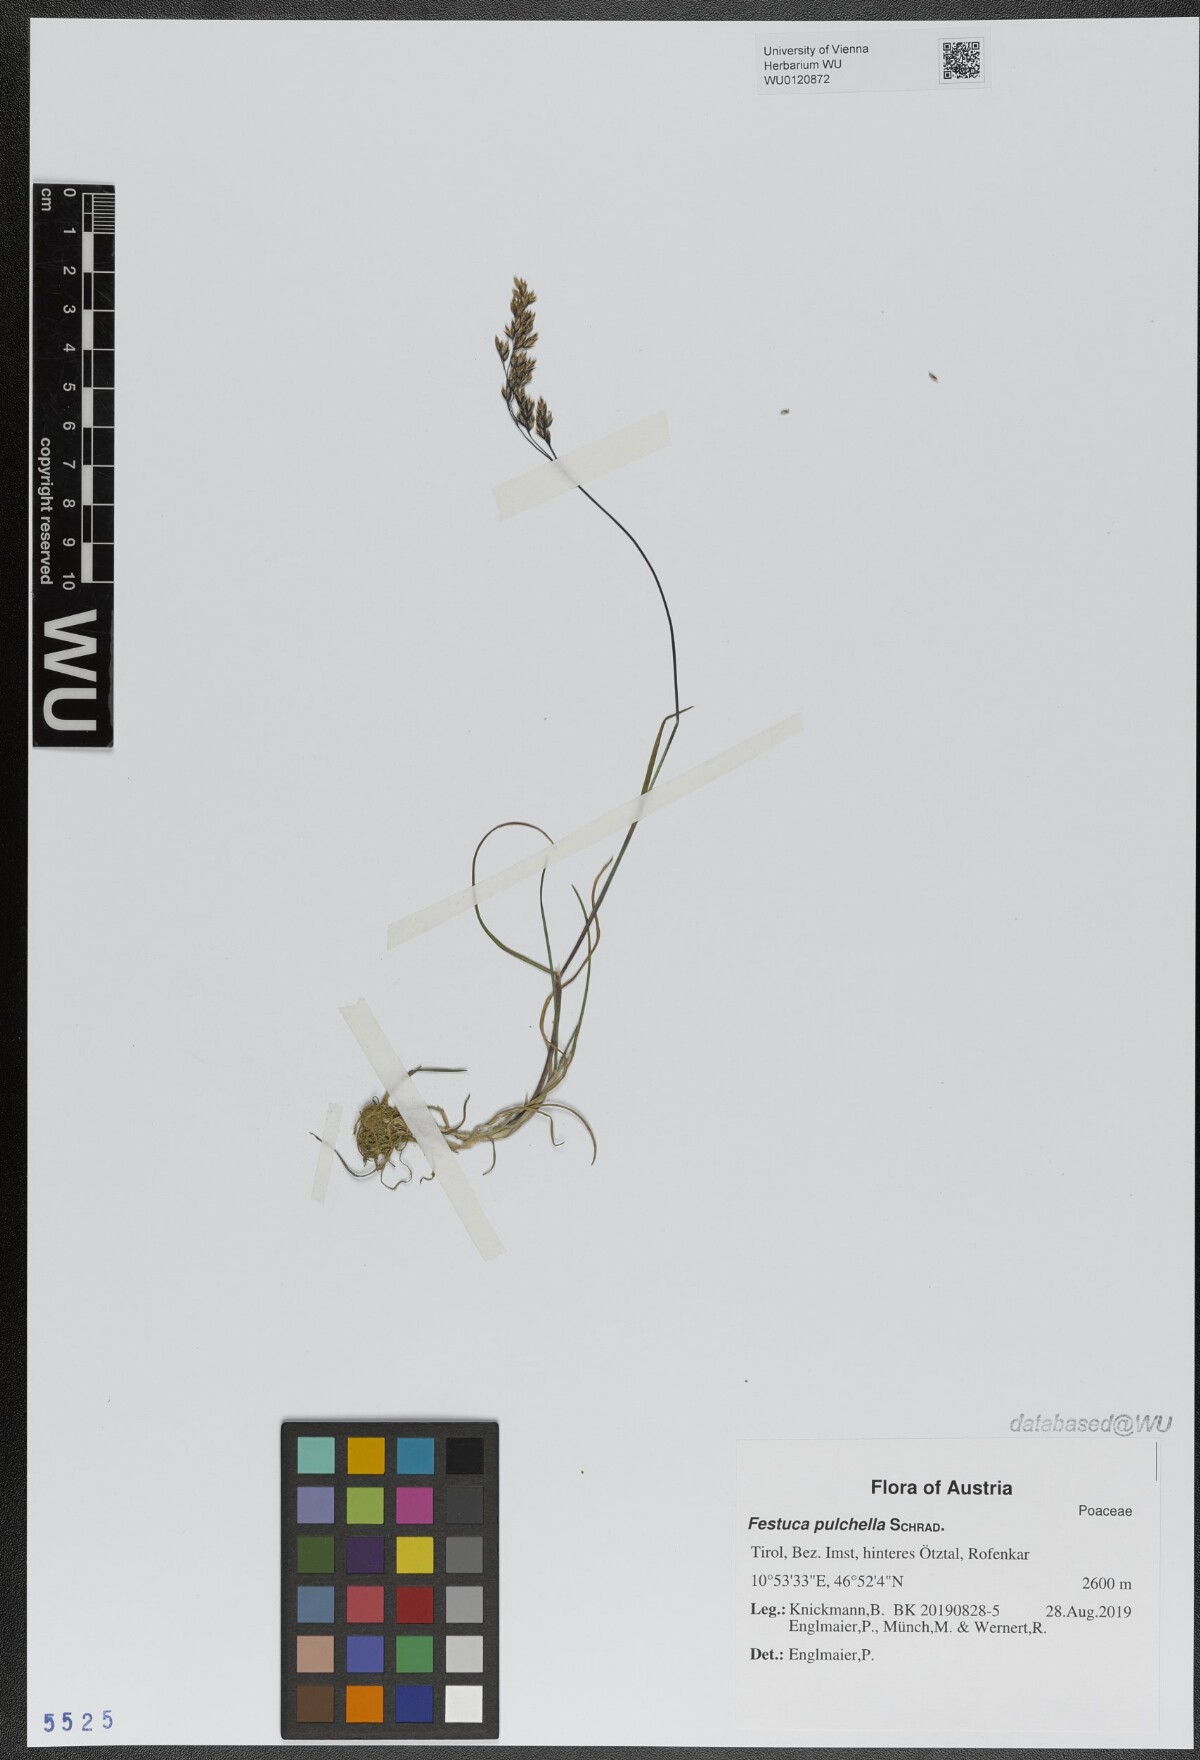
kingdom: Plantae
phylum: Tracheophyta
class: Liliopsida
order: Poales
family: Poaceae
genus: Festuca
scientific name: Festuca pulchella
